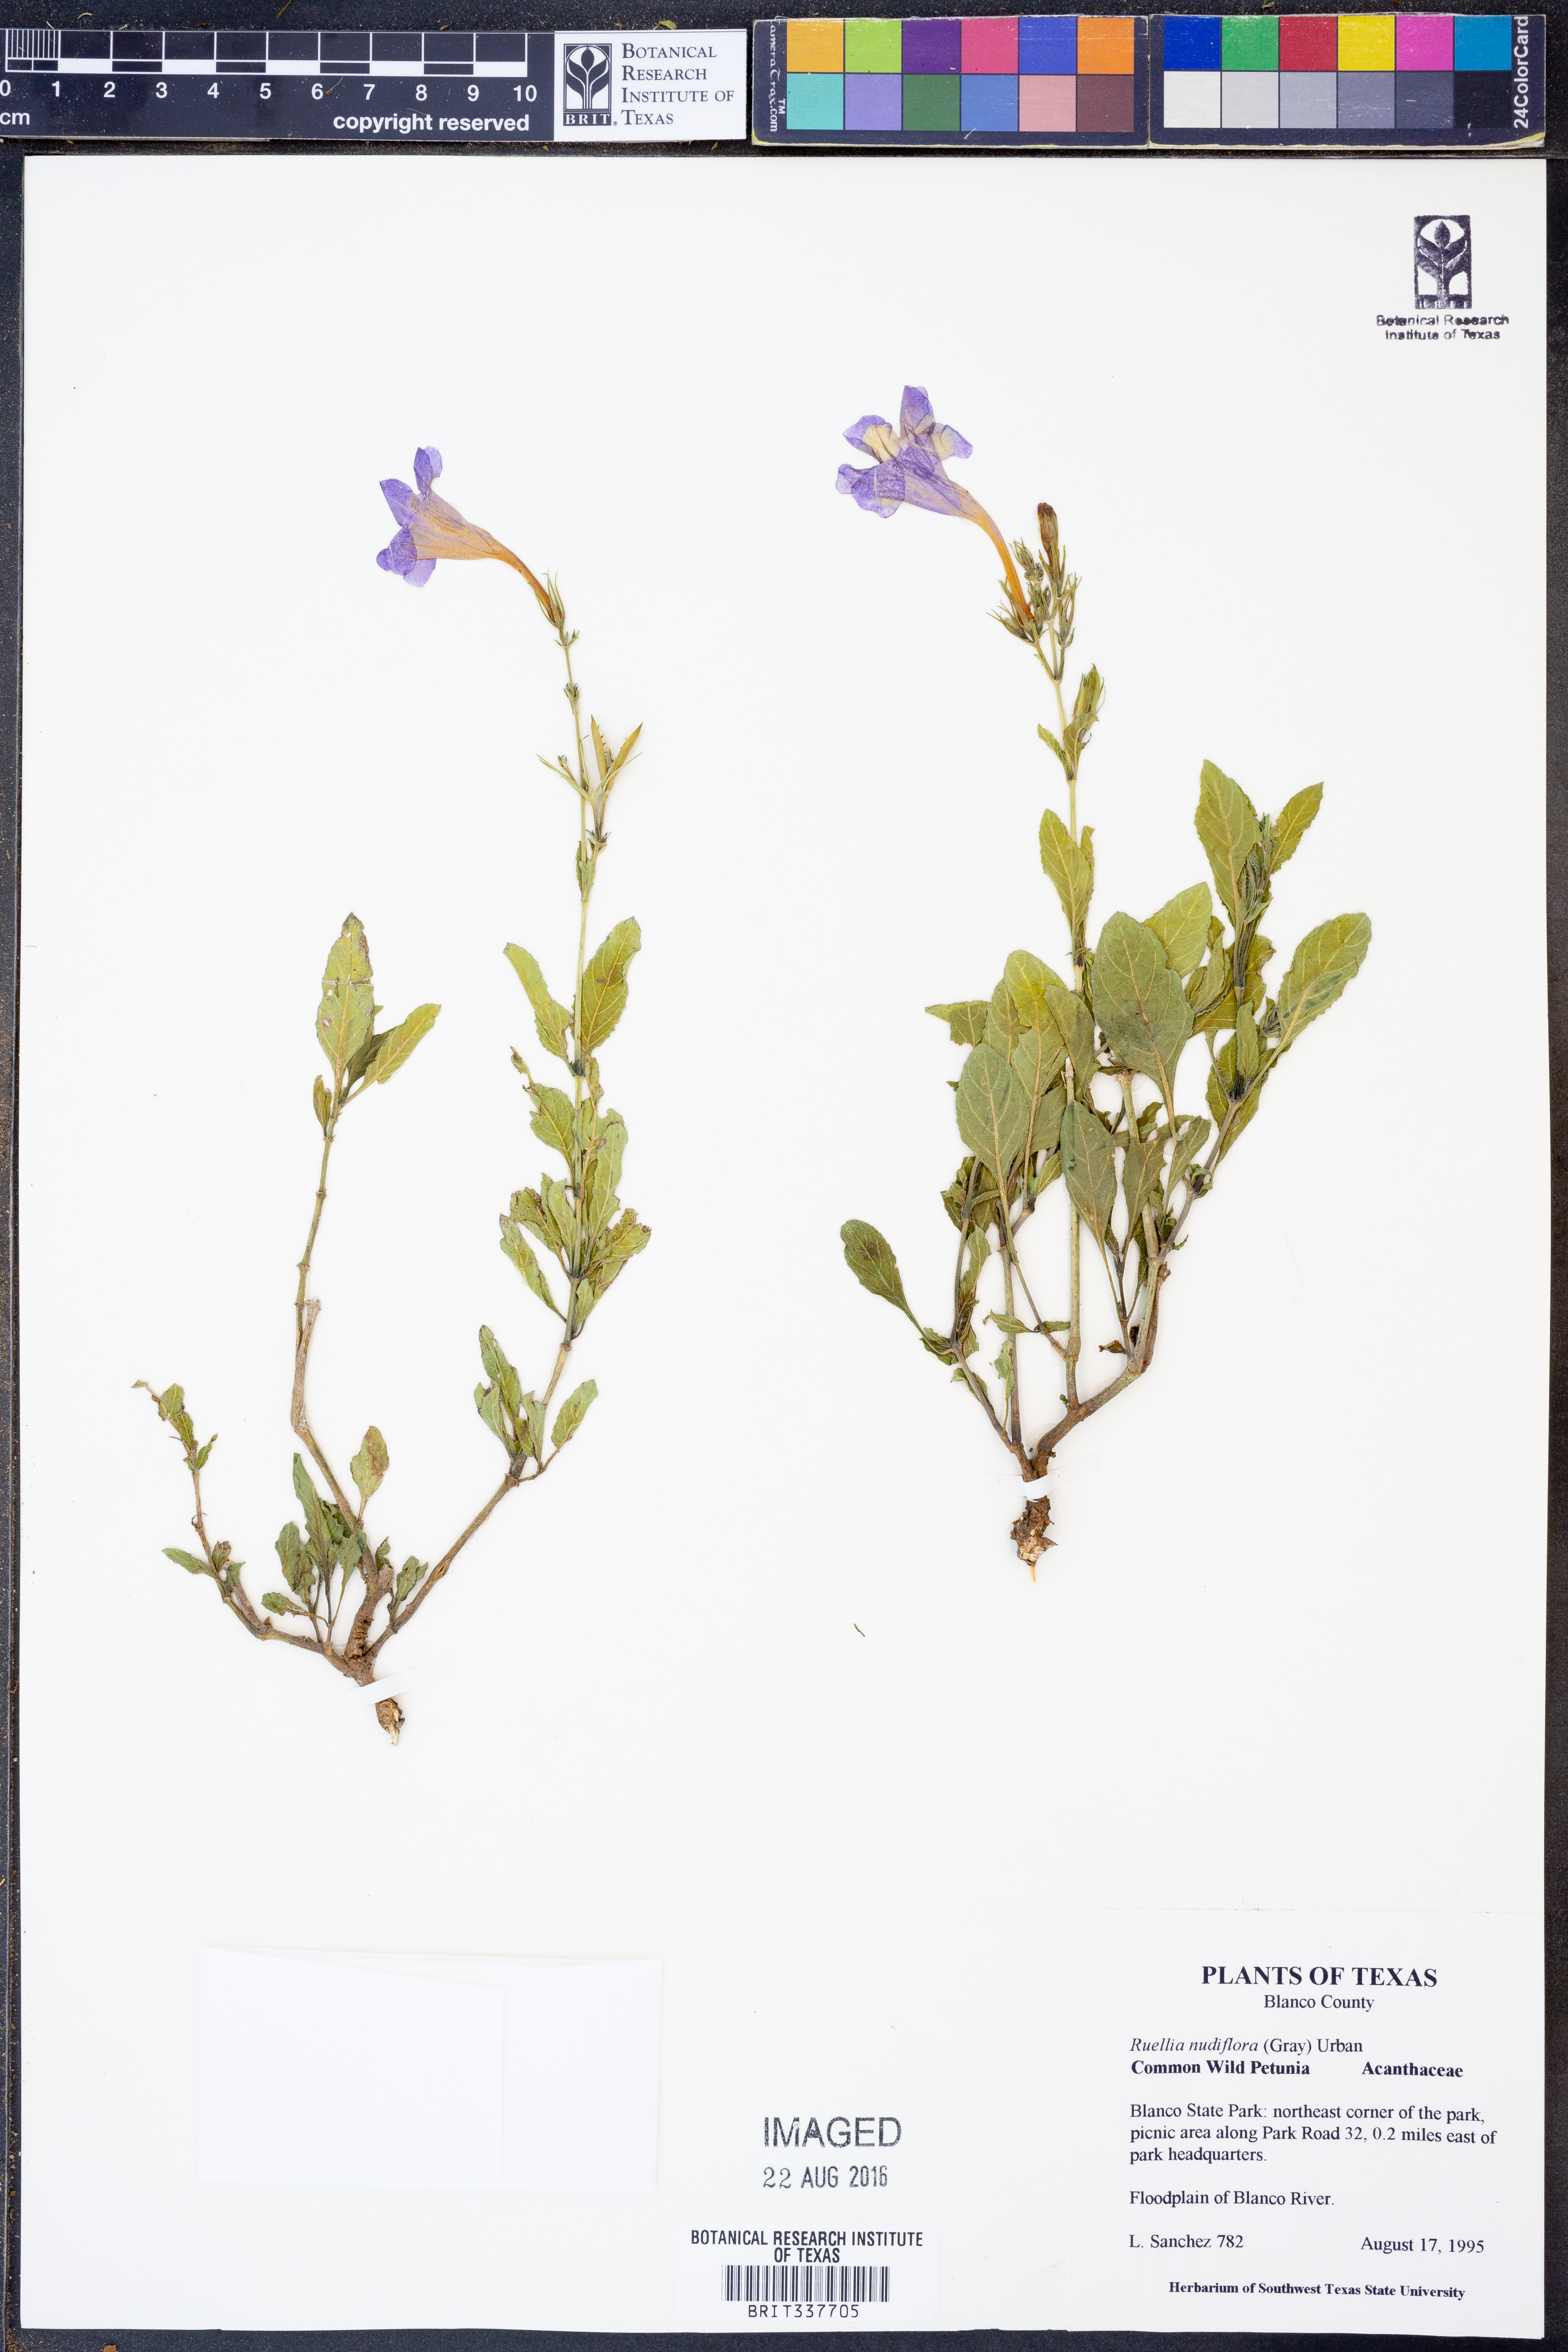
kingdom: Plantae
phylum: Tracheophyta
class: Magnoliopsida
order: Lamiales
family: Acanthaceae
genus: Ruellia
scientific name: Ruellia ciliatiflora
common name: Hairyflower wild petunia
